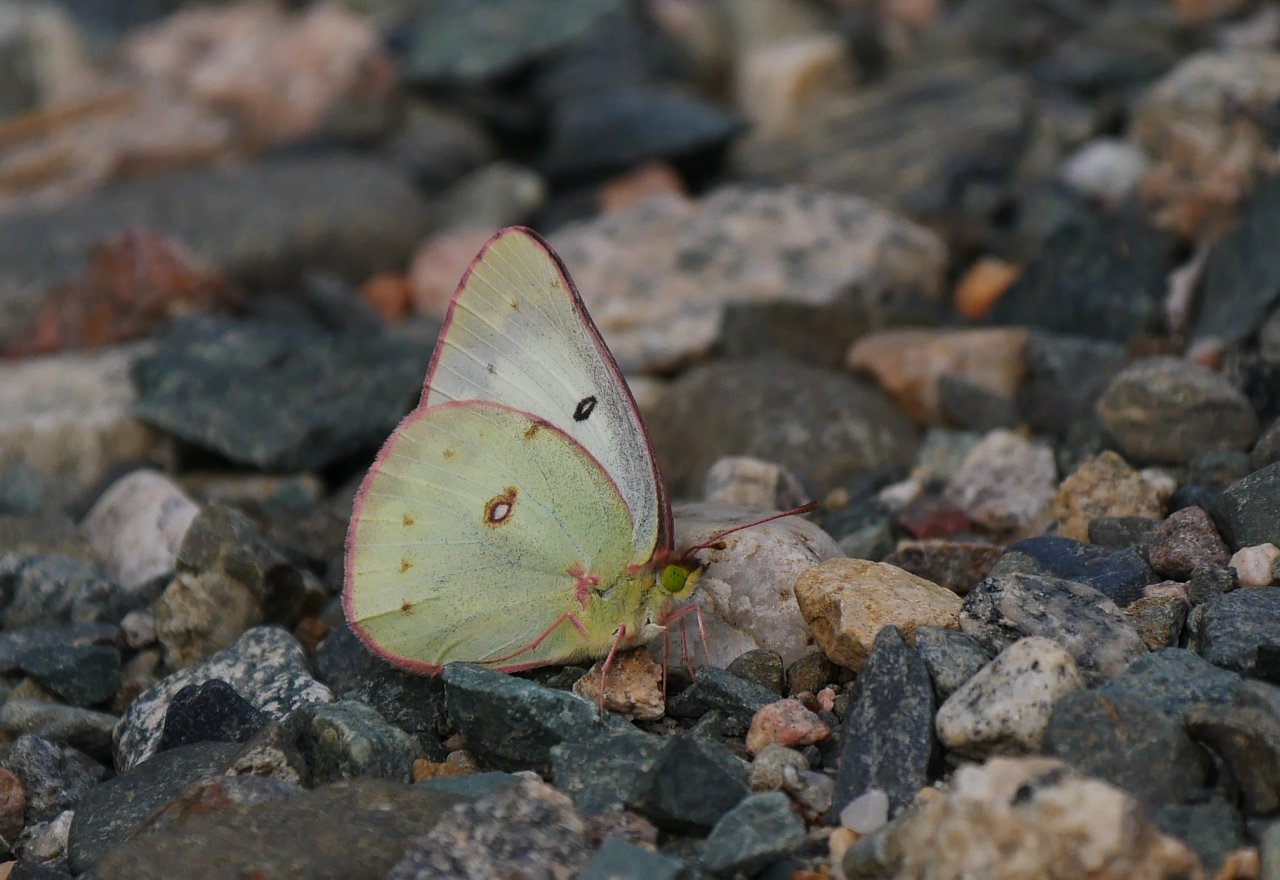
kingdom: Animalia
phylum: Arthropoda
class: Insecta
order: Lepidoptera
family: Pieridae
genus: Colias
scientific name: Colias philodice
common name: Clouded Sulphur
